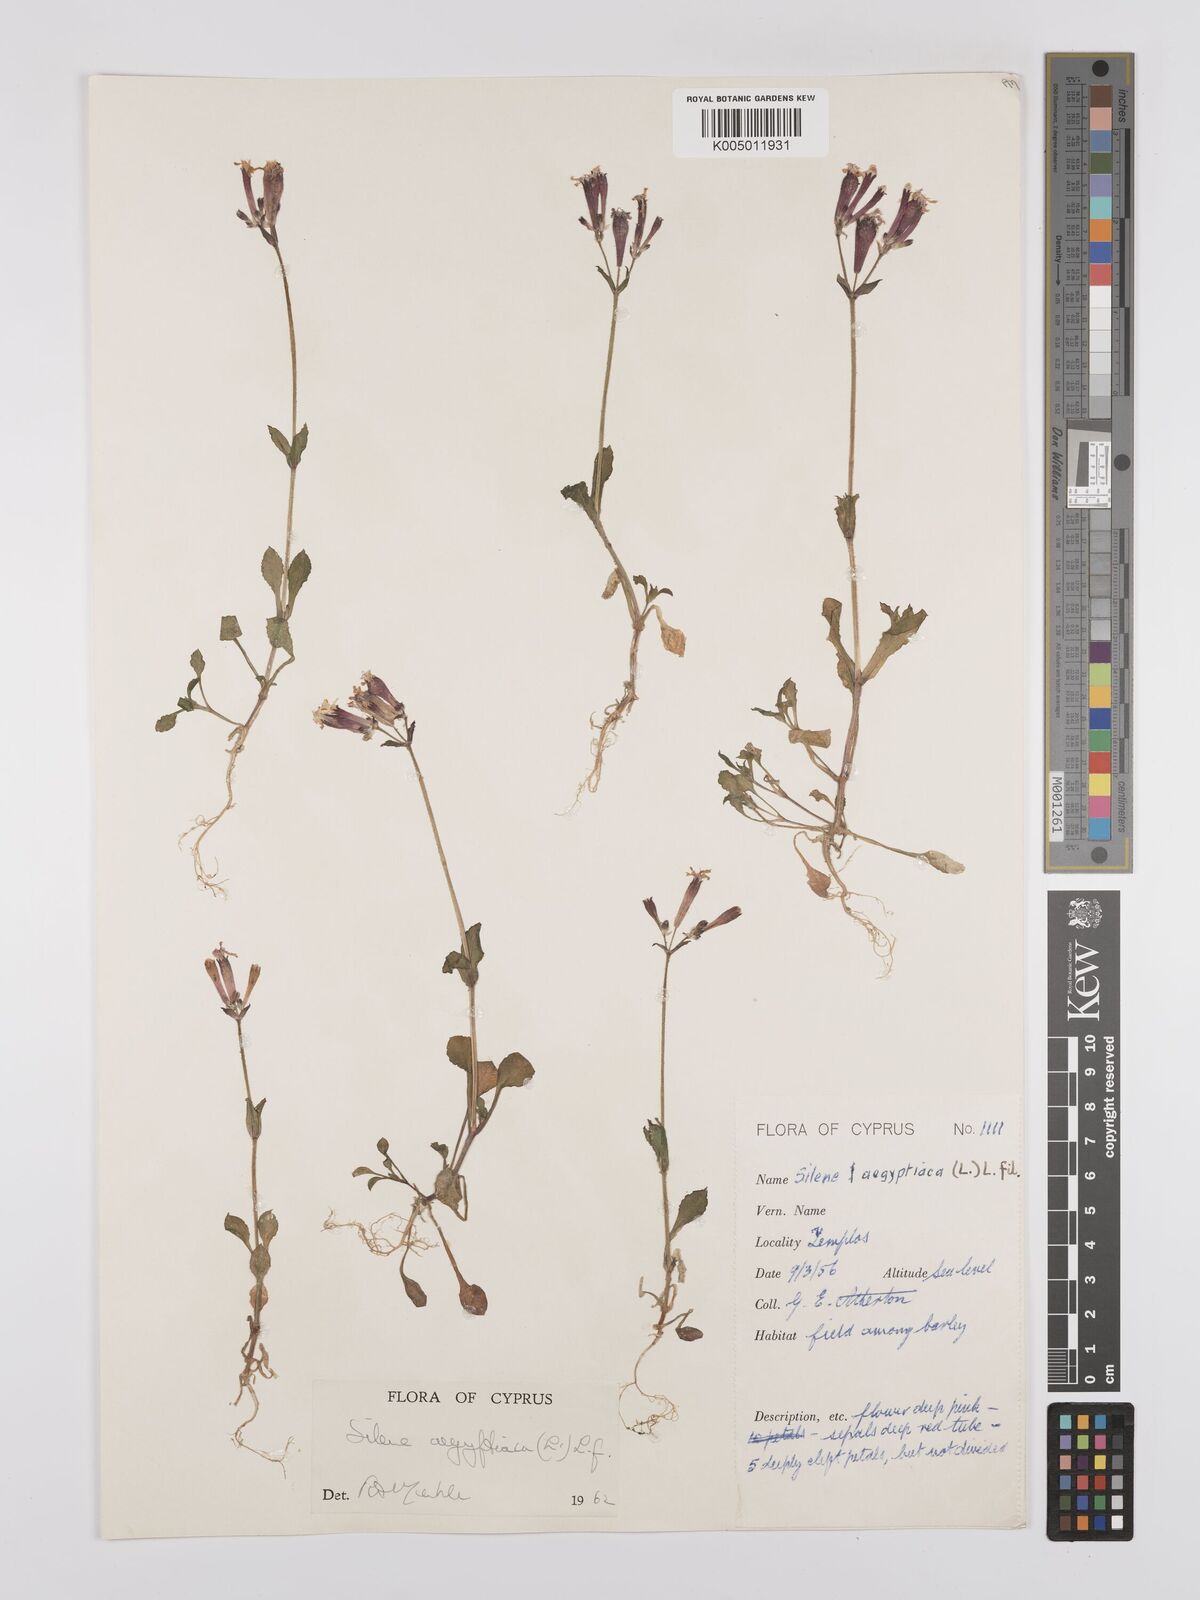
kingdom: Plantae
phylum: Tracheophyta
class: Magnoliopsida
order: Caryophyllales
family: Caryophyllaceae
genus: Silene
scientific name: Silene aegyptiaca
